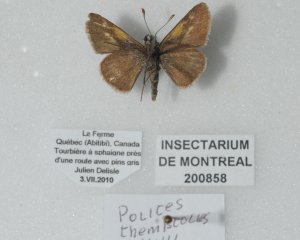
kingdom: Animalia
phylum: Arthropoda
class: Insecta
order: Lepidoptera
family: Hesperiidae
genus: Polites
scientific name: Polites themistocles
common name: Tawny-edged Skipper
